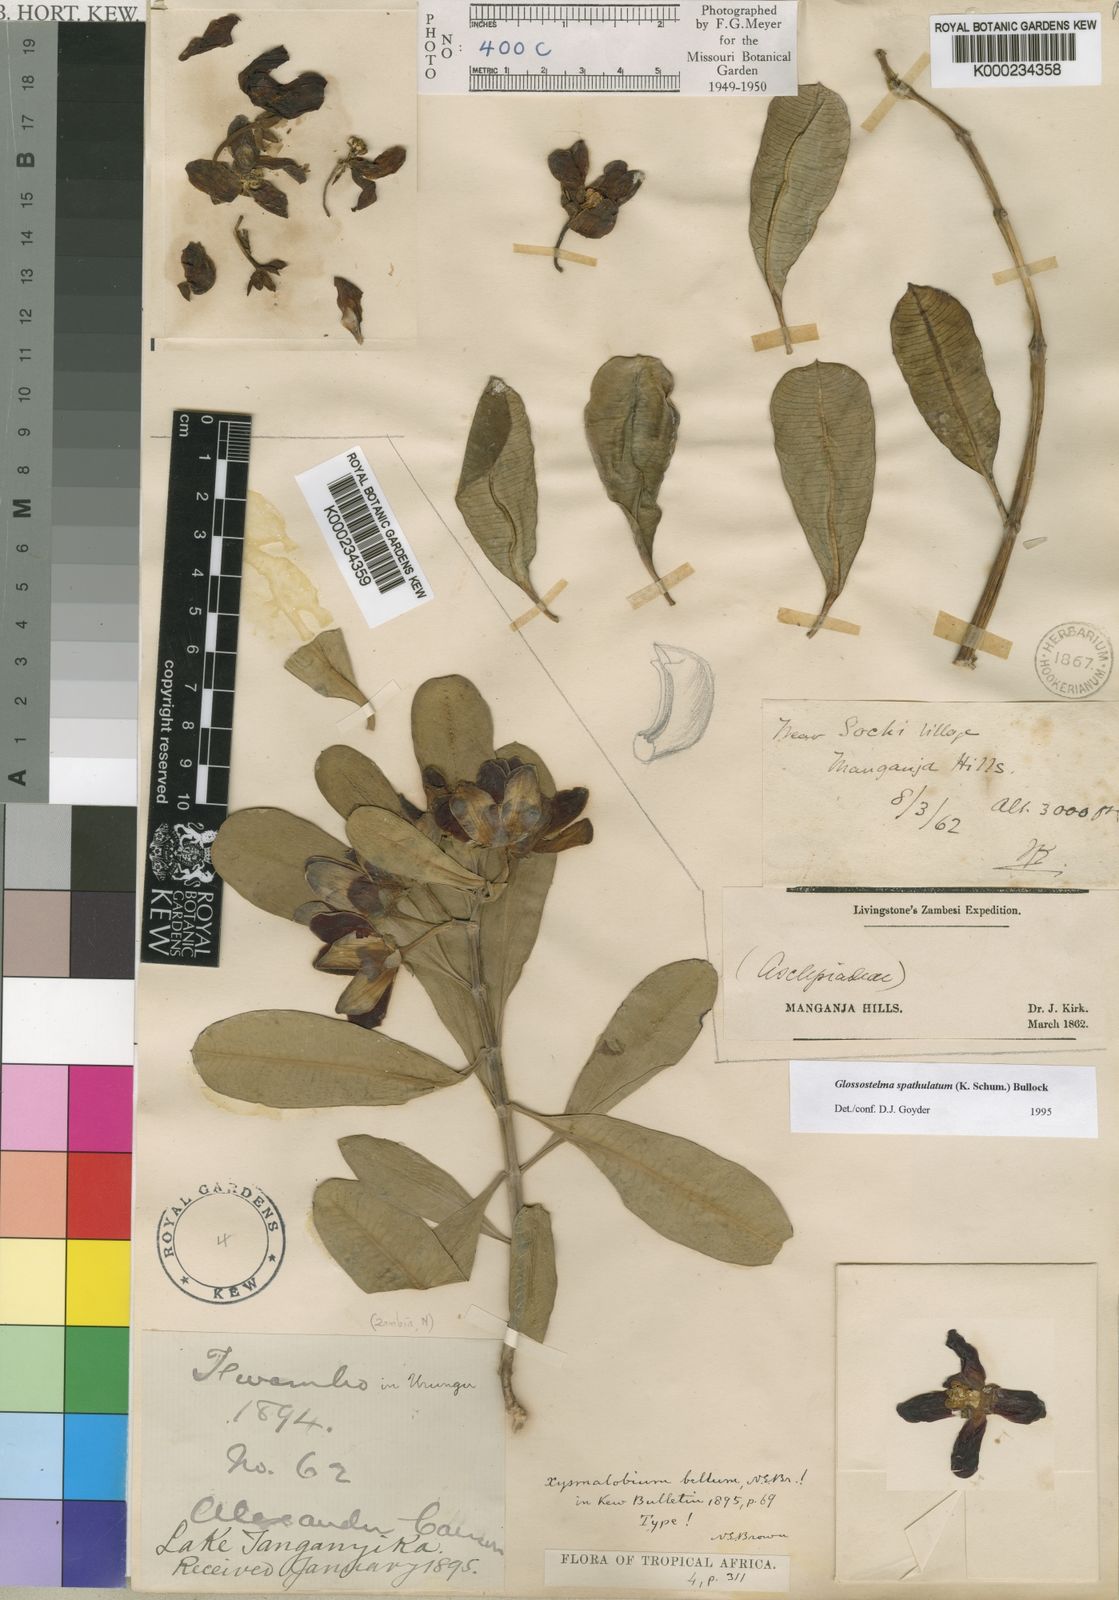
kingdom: Plantae
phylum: Tracheophyta
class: Magnoliopsida
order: Gentianales
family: Apocynaceae
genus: Glossostelma
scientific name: Glossostelma spathulatum
